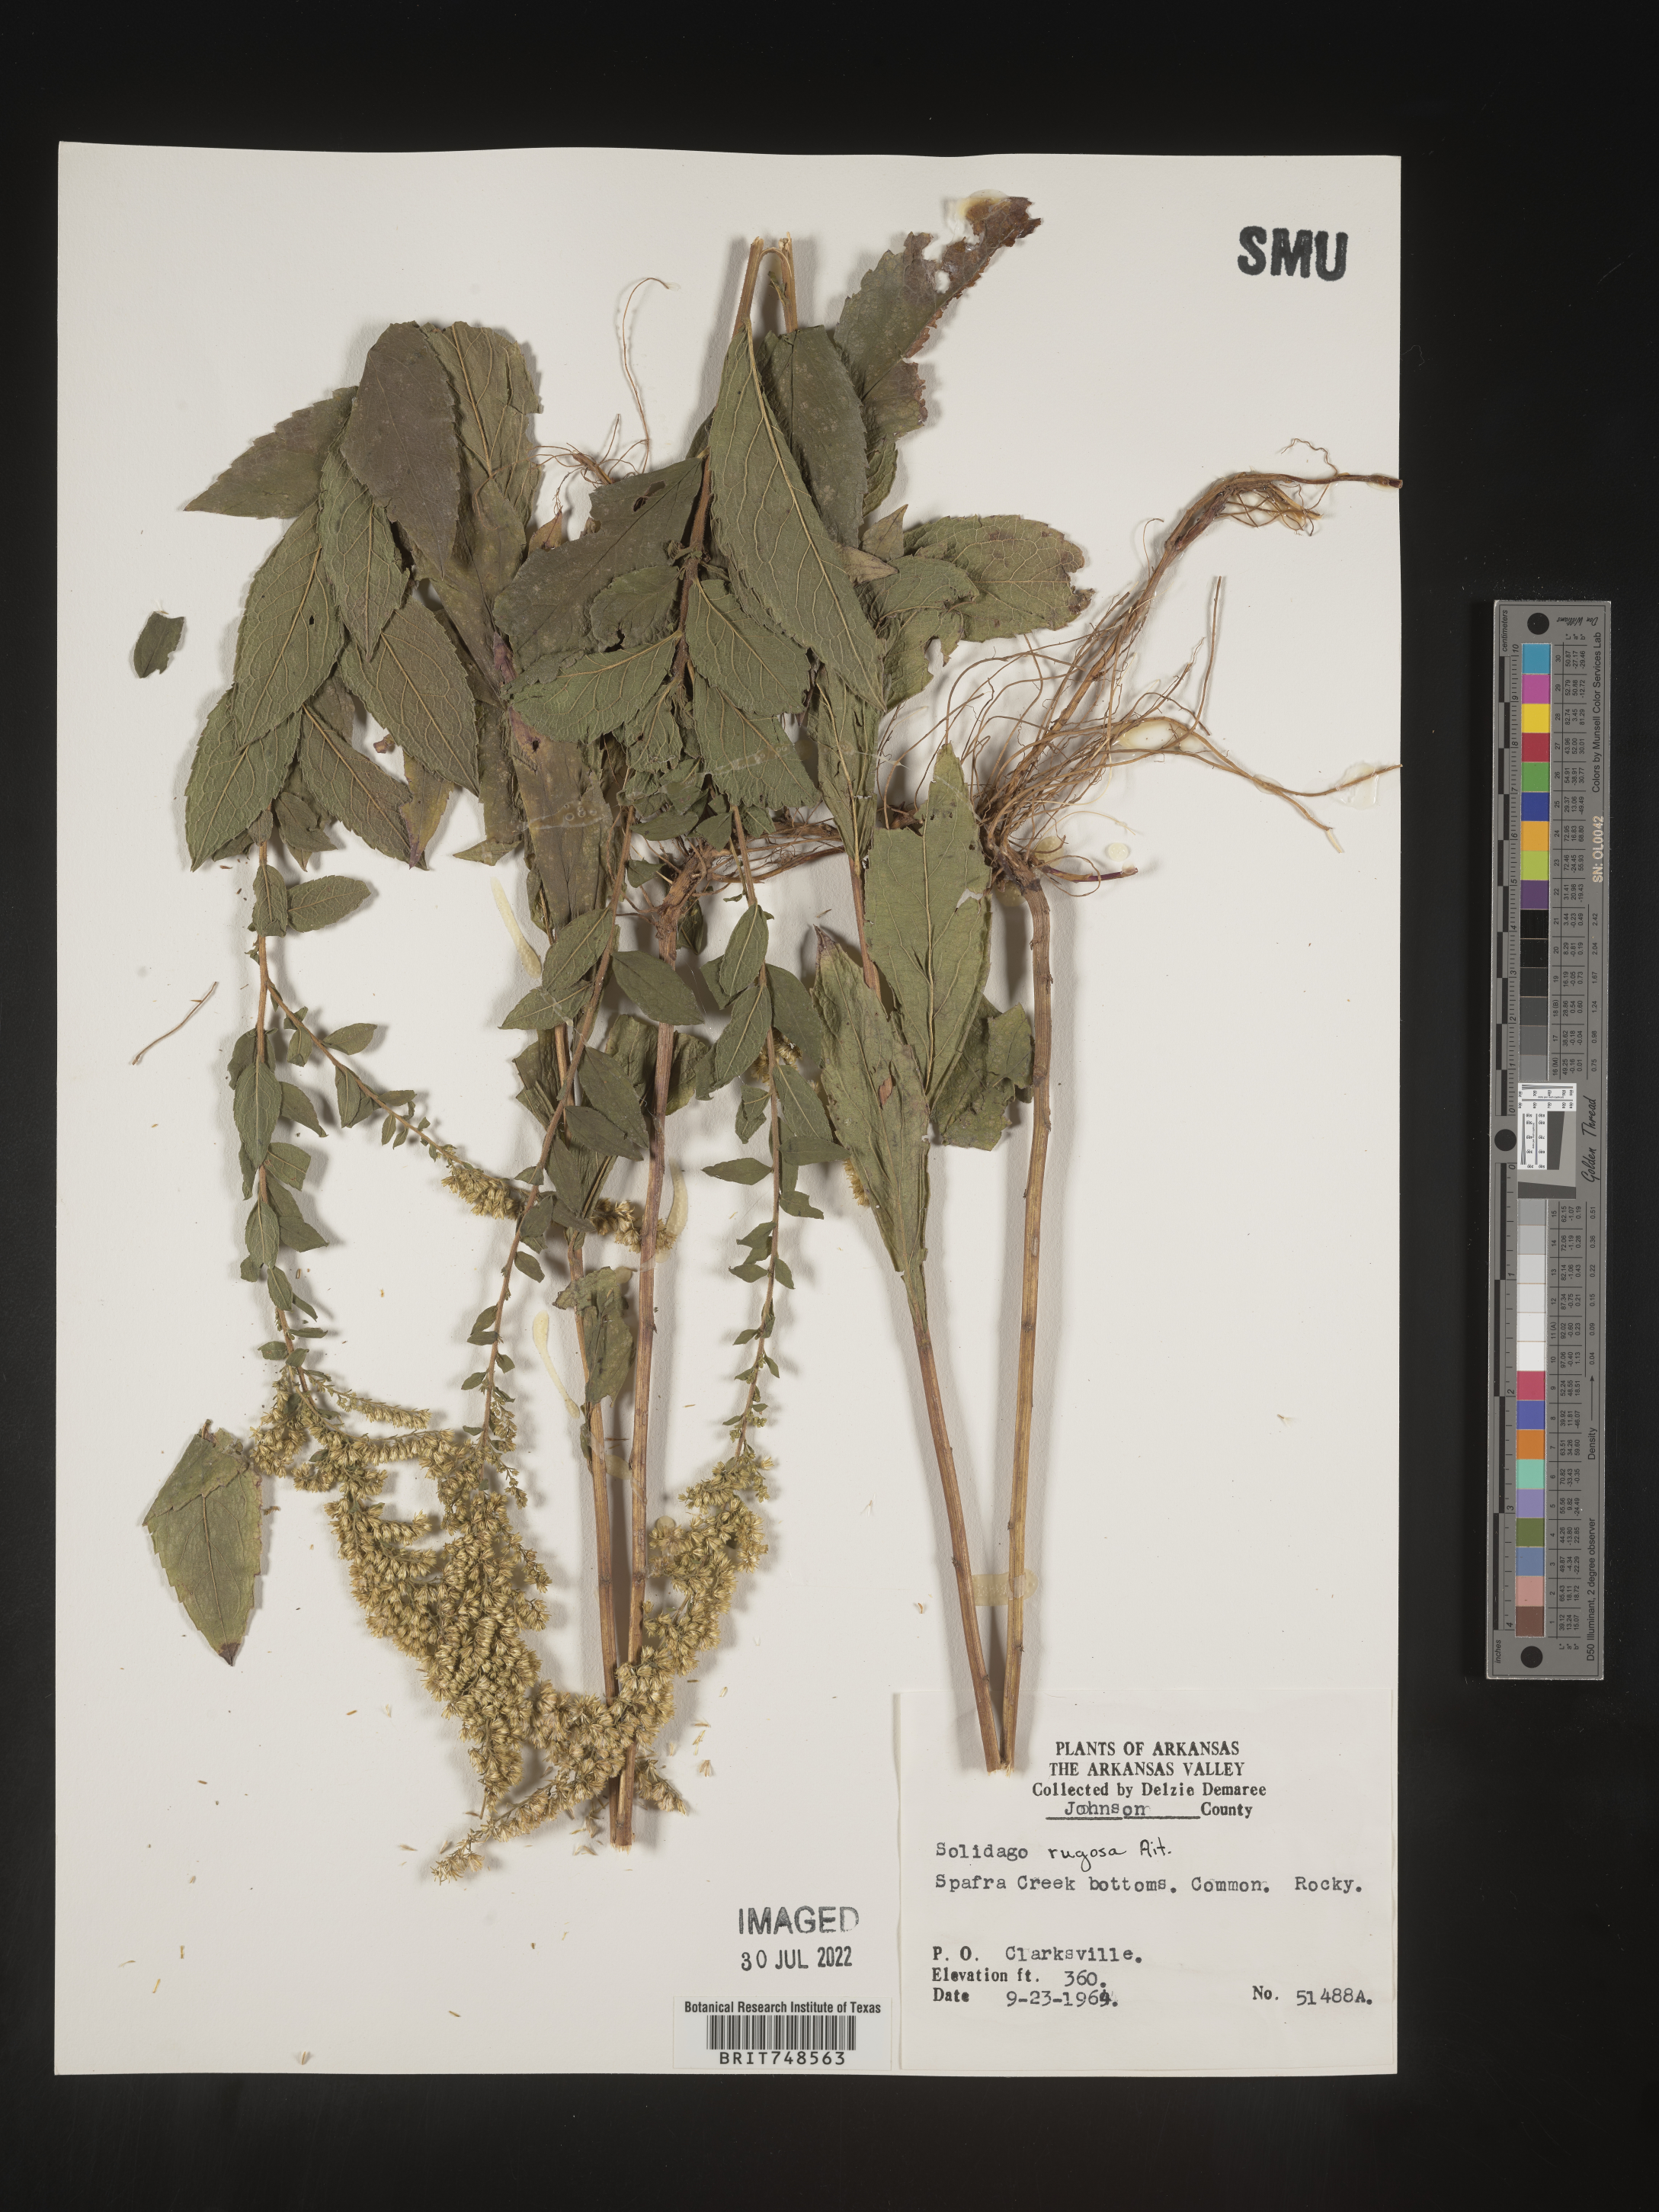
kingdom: Plantae
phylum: Tracheophyta
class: Magnoliopsida
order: Asterales
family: Asteraceae
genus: Solidago
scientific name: Solidago rugosa
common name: Rough-stemmed goldenrod
